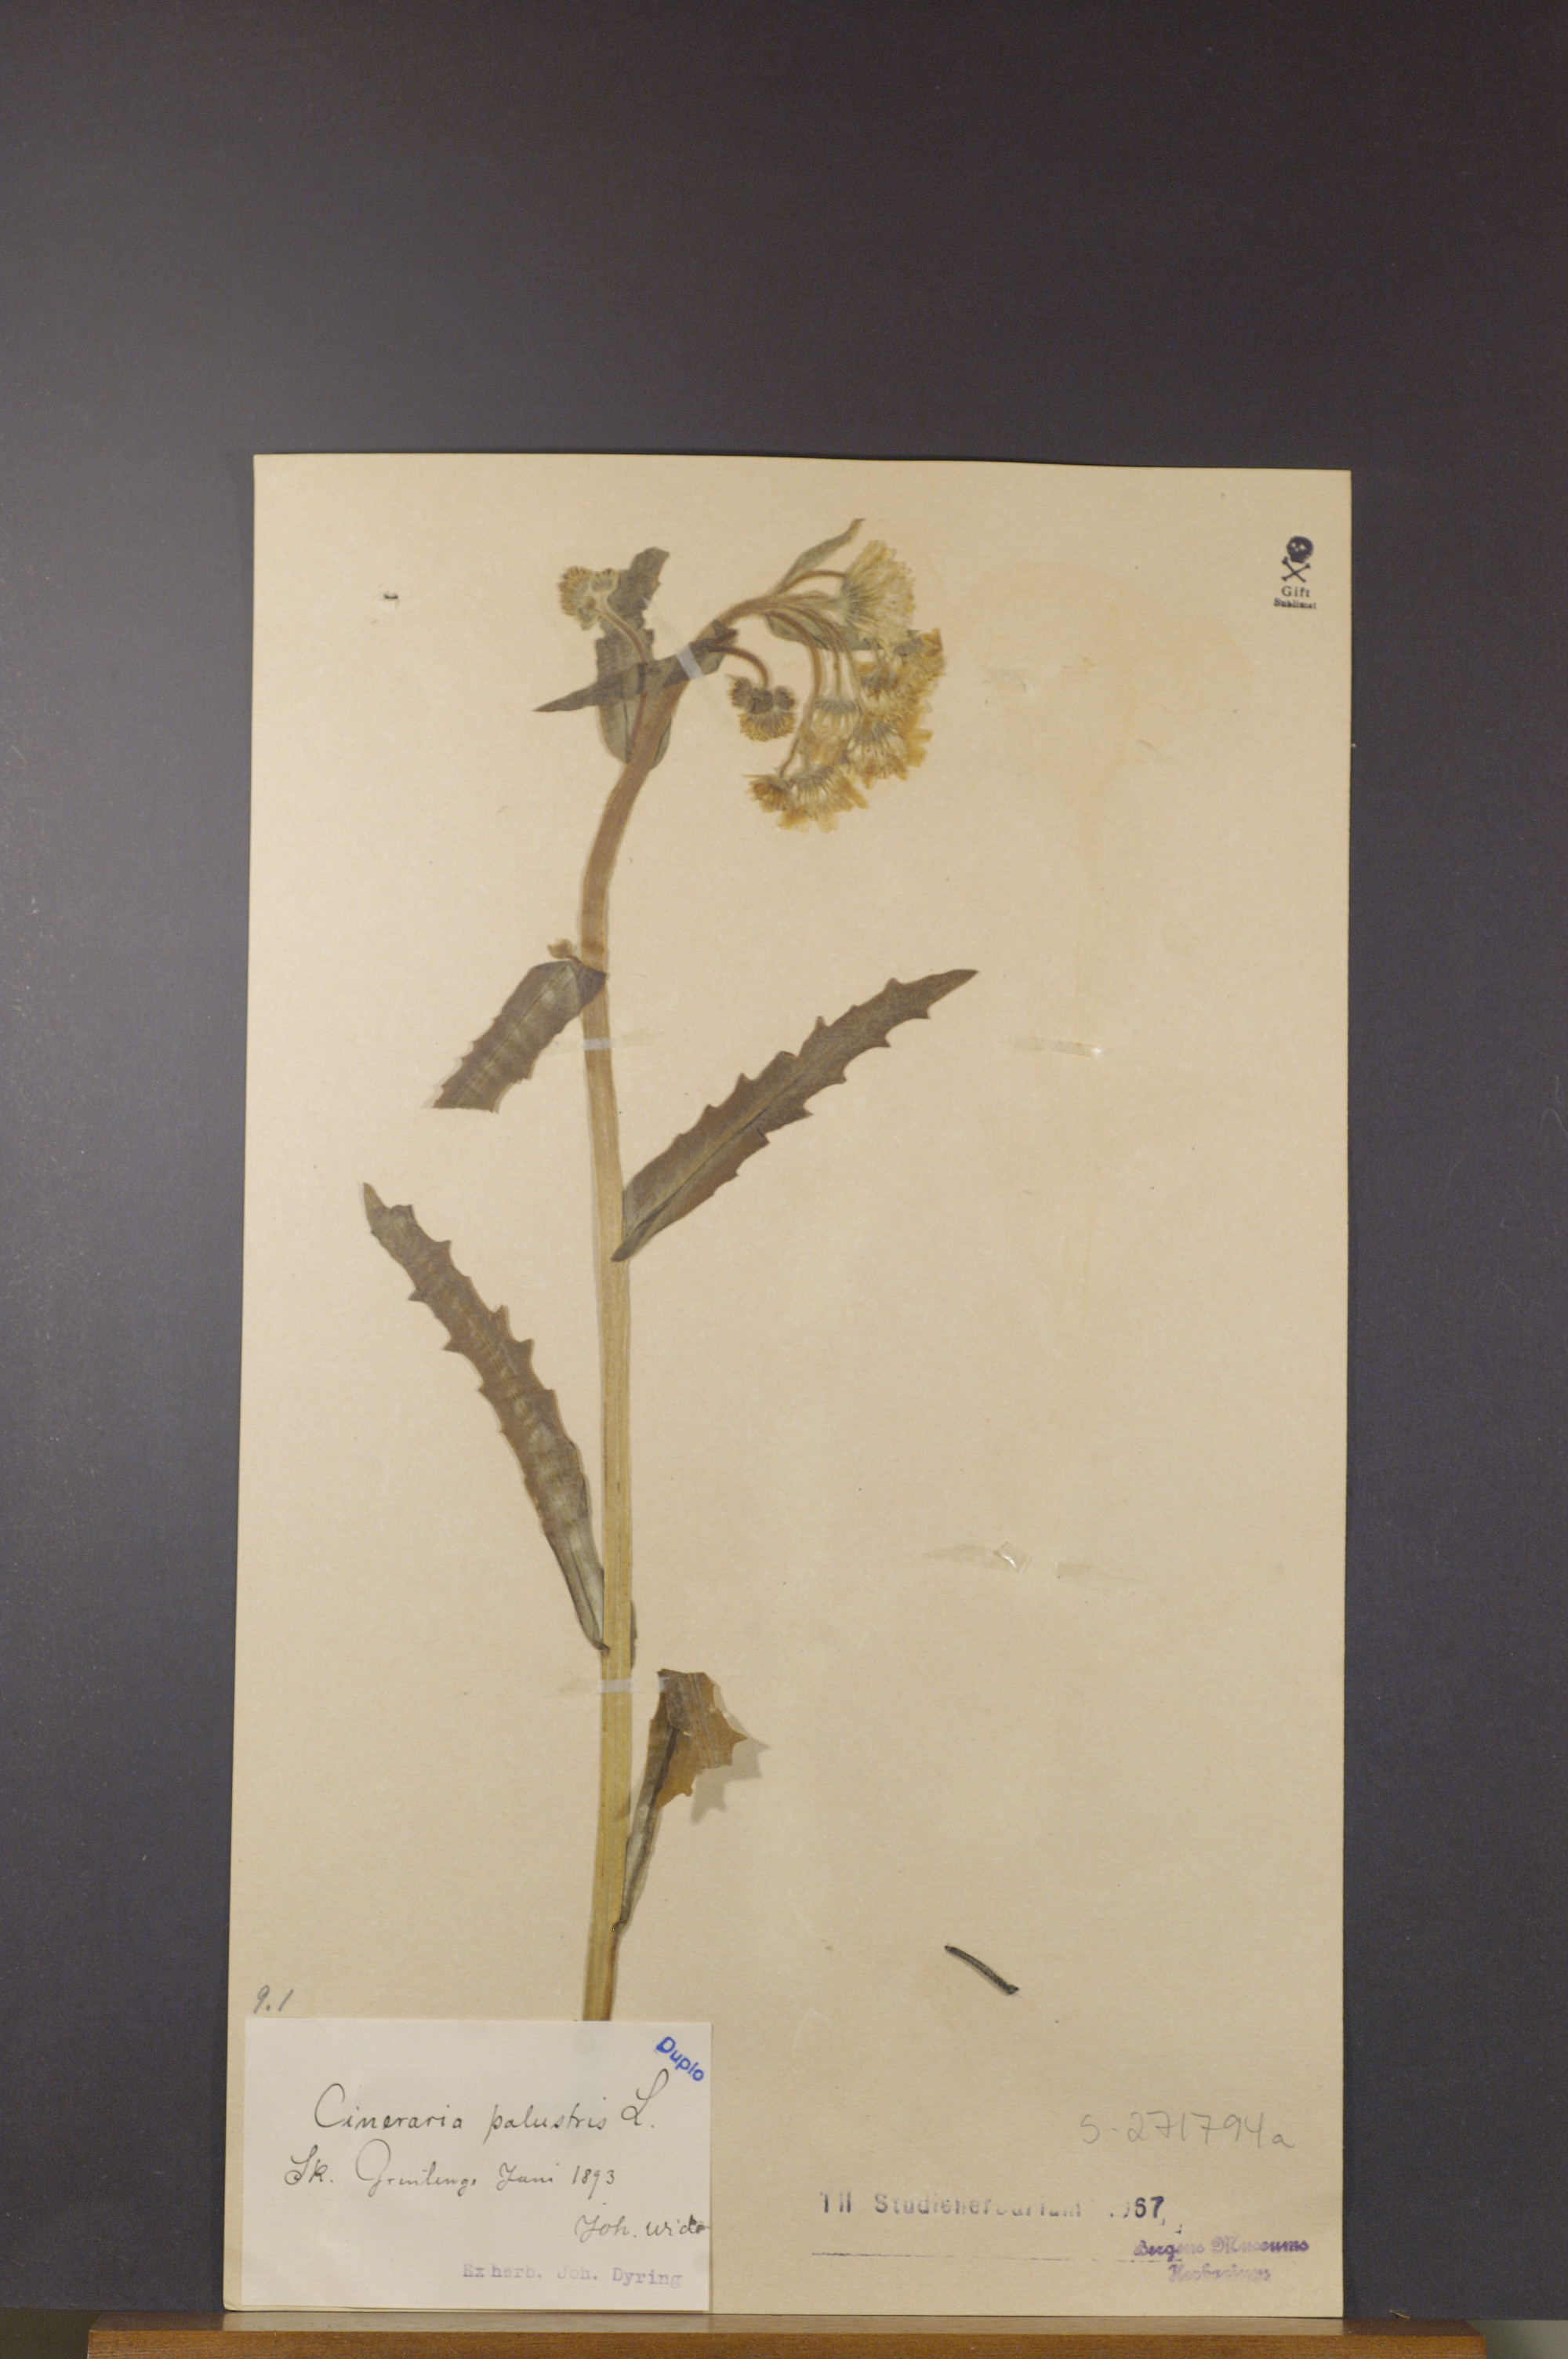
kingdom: Plantae
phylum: Tracheophyta
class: Magnoliopsida
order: Asterales
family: Asteraceae
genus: Tephroseris
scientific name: Tephroseris palustris
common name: Marsh fleawort
